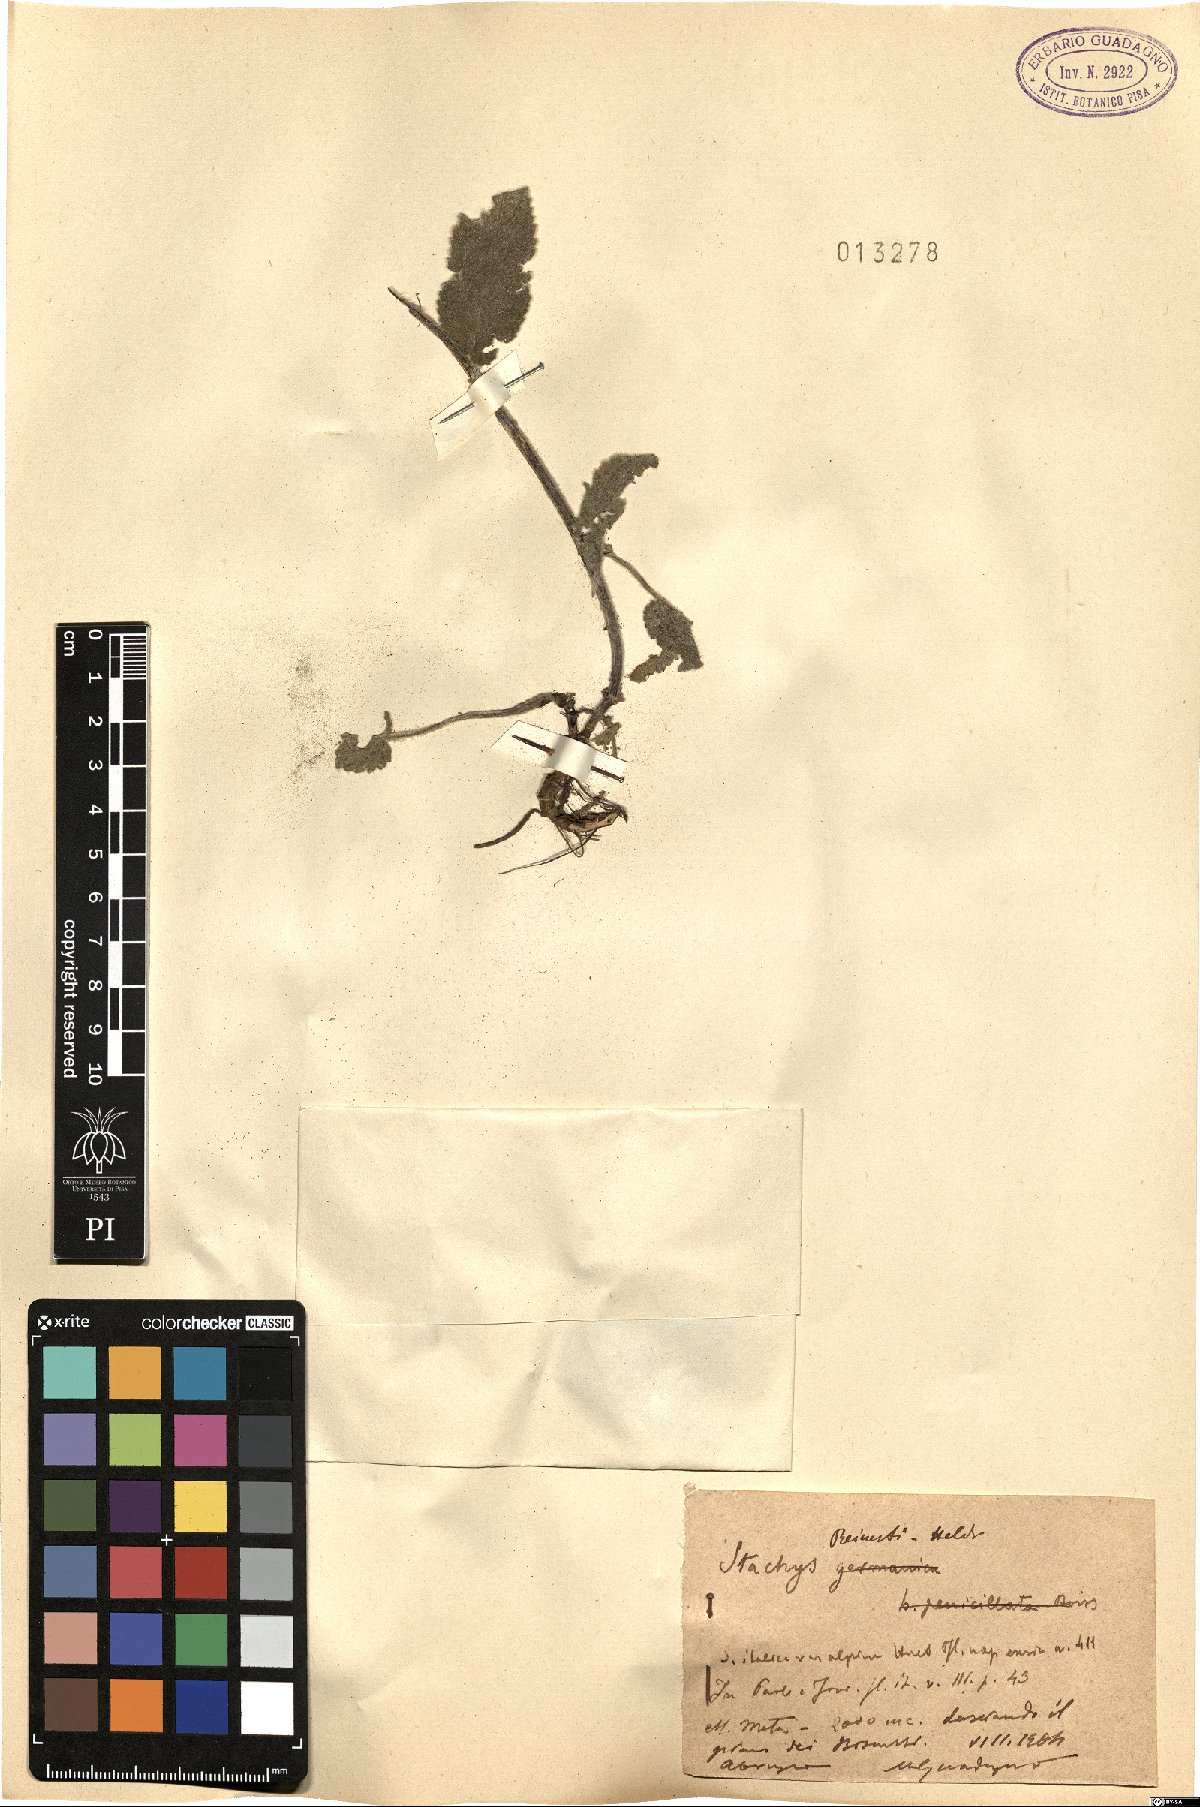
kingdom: Plantae
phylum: Tracheophyta
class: Magnoliopsida
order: Lamiales
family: Lamiaceae
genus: Stachys
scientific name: Stachys tymphaea
